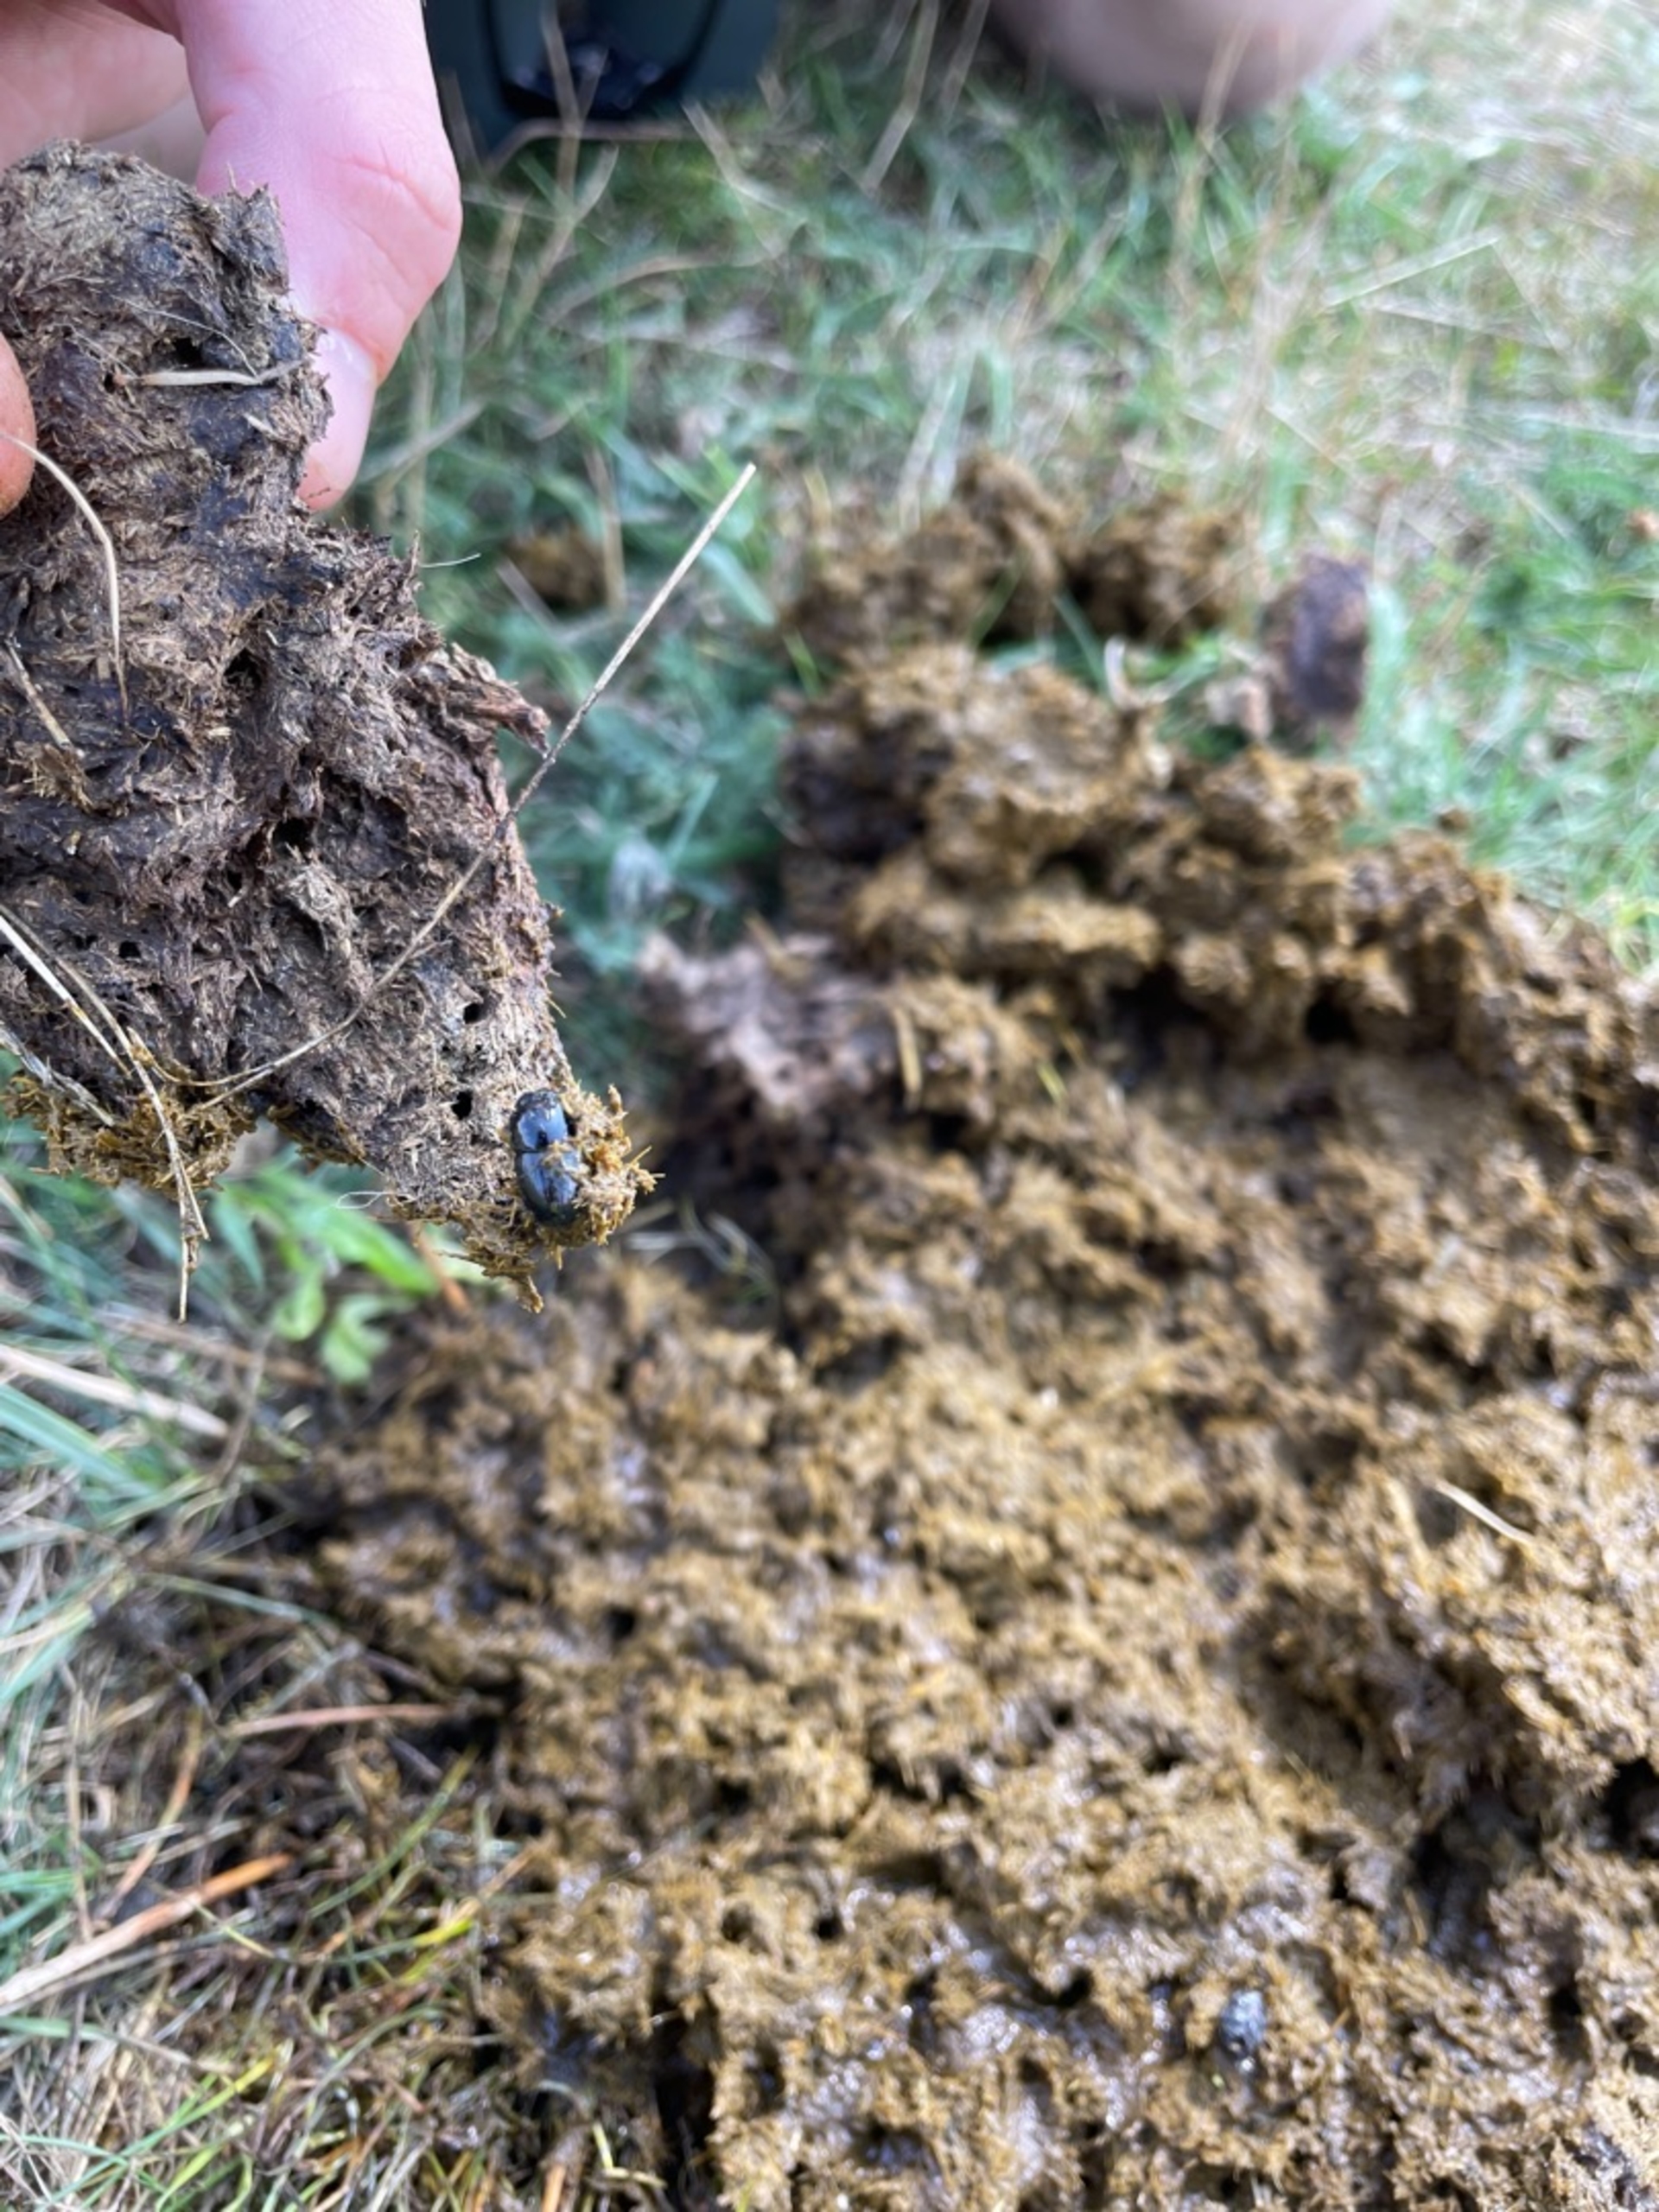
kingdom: Animalia
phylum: Arthropoda
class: Insecta
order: Coleoptera
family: Scarabaeidae
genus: Teuchestes
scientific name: Teuchestes fossor
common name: Stor møgbille
